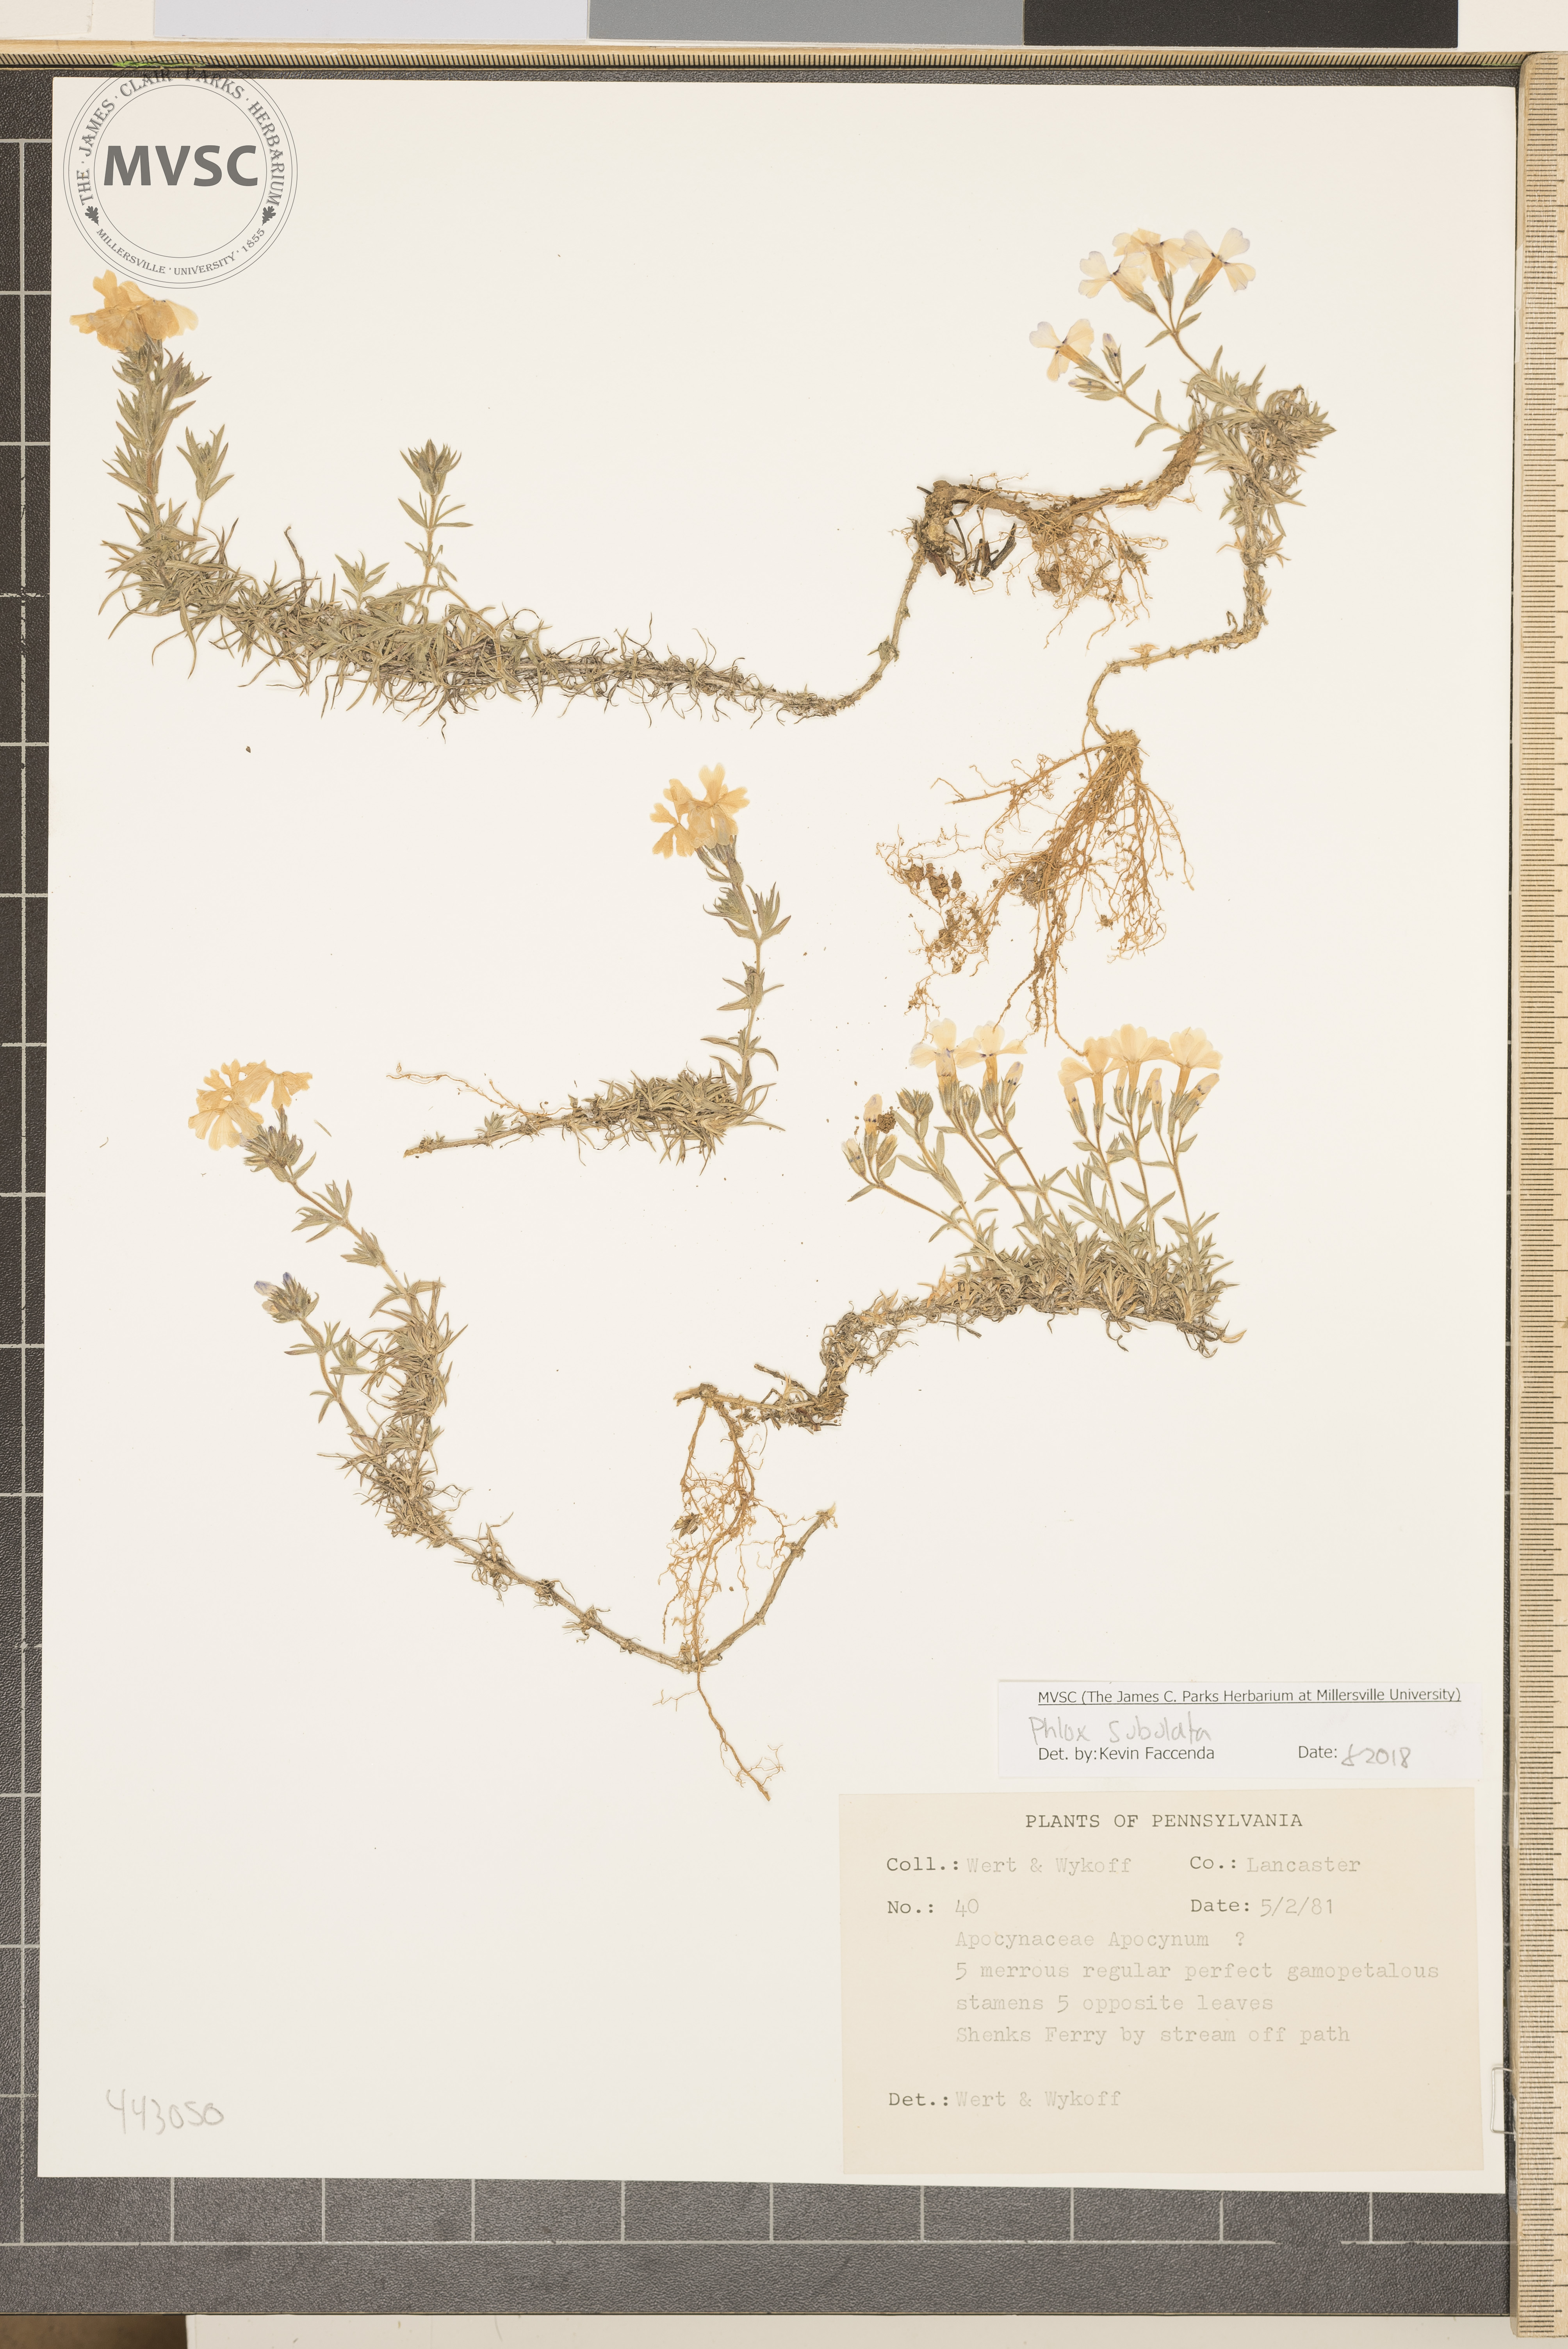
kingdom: Plantae
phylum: Tracheophyta
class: Magnoliopsida
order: Ericales
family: Polemoniaceae
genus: Phlox
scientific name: Phlox subulata
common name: Moss phlox
